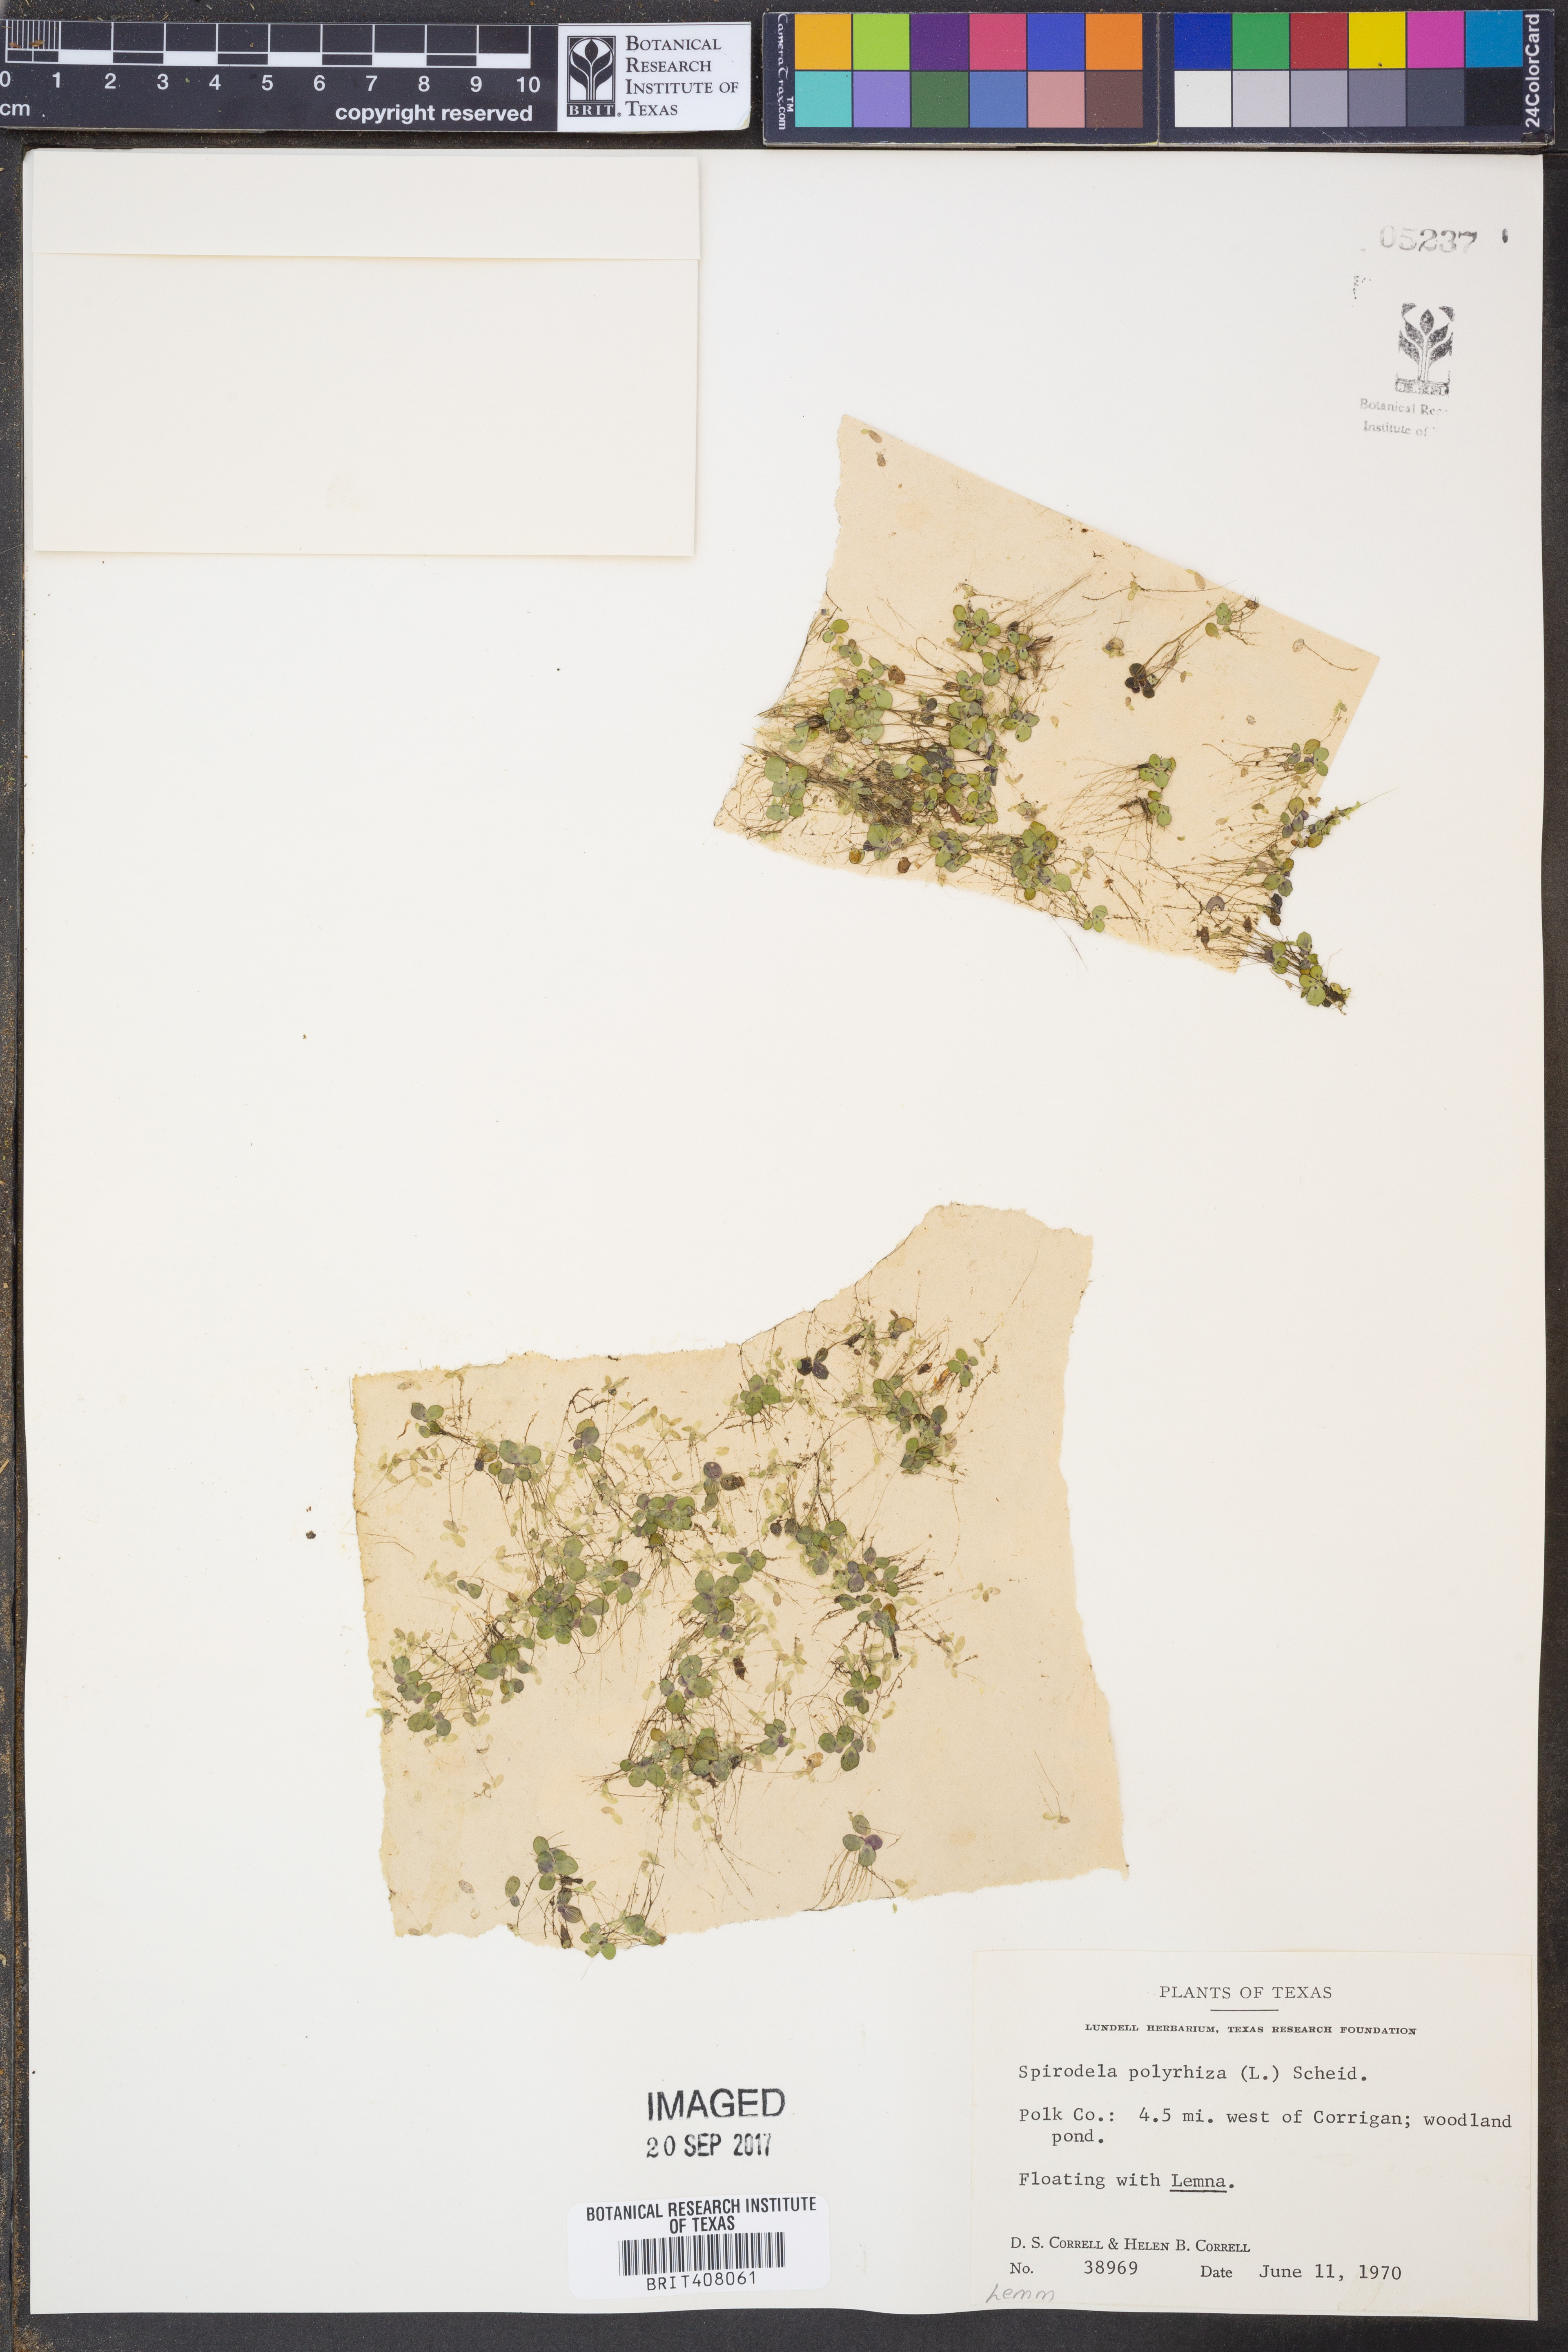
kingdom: Plantae
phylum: Tracheophyta
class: Liliopsida
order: Alismatales
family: Araceae
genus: Spirodela
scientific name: Spirodela polyrhiza
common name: Great duckweed
